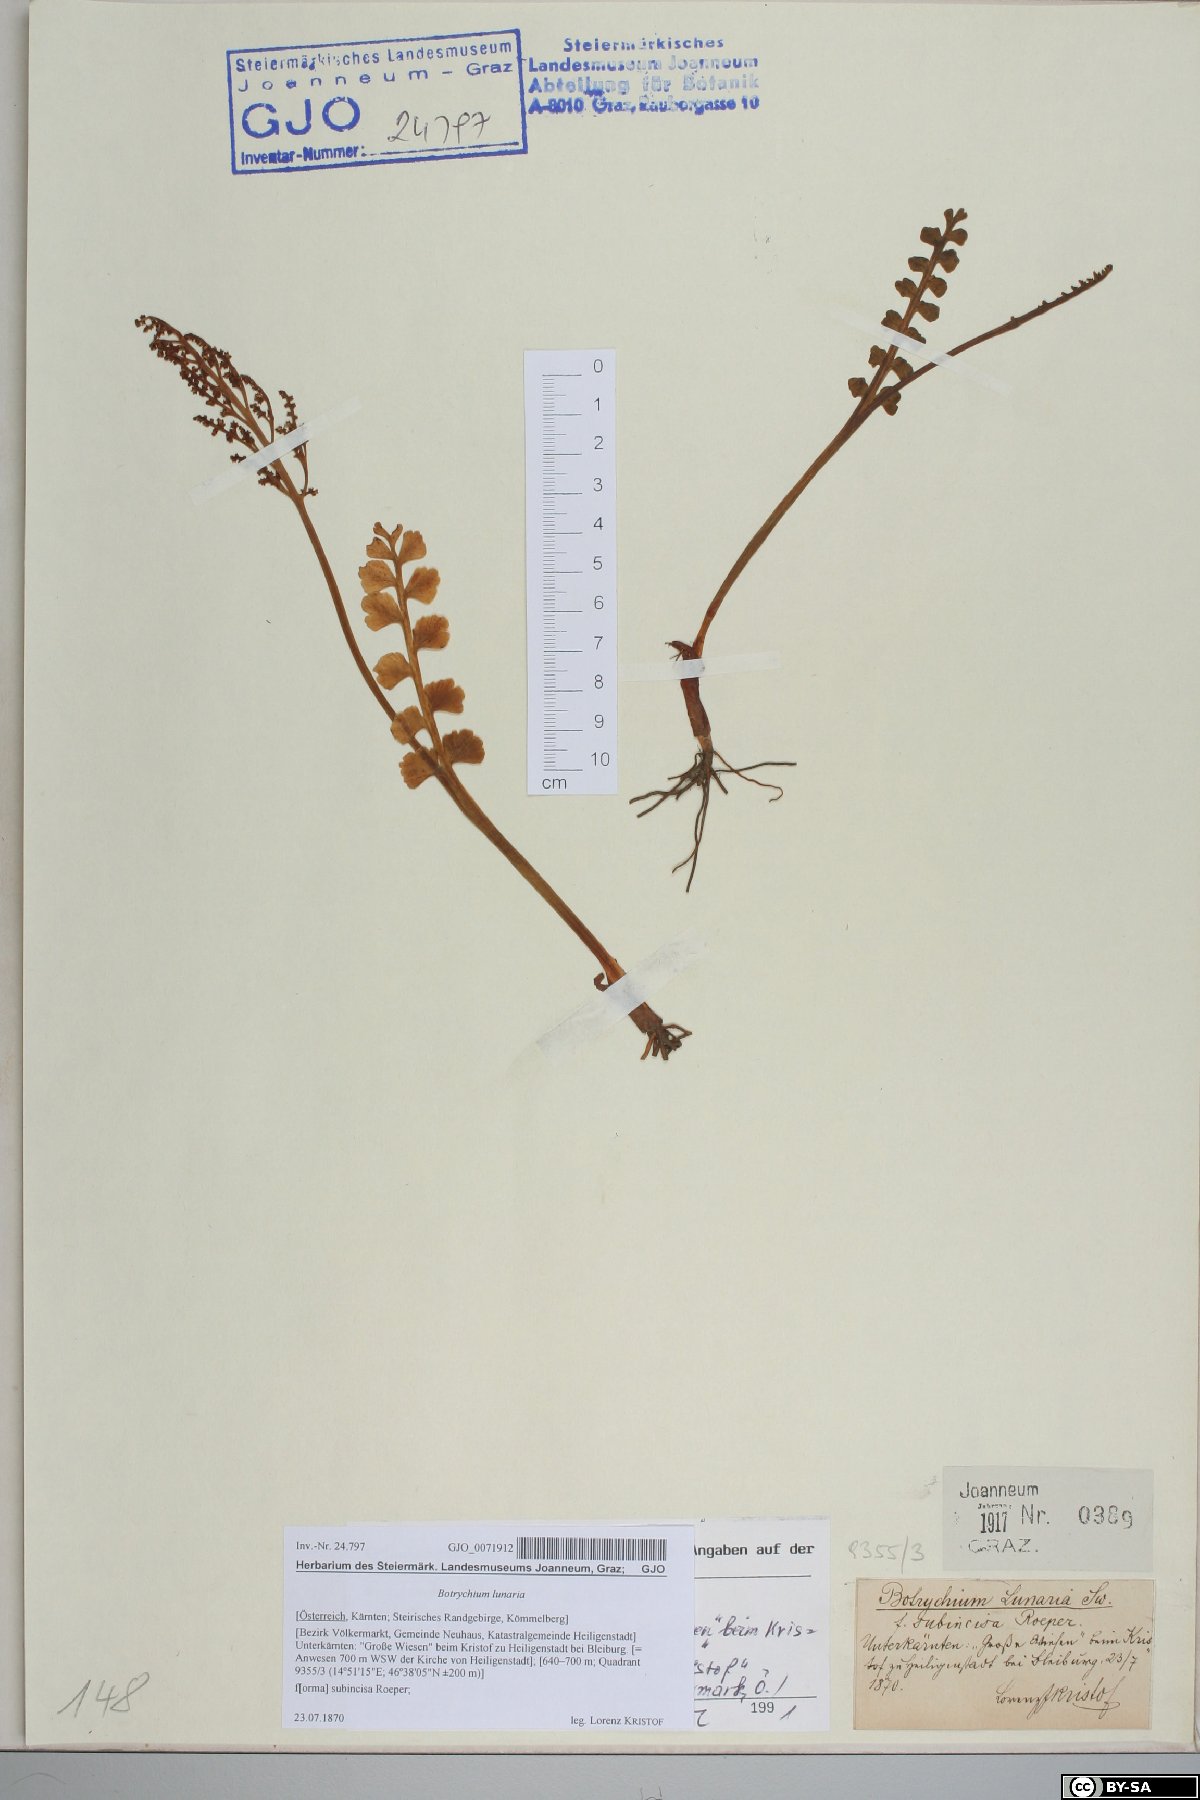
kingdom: Plantae
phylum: Tracheophyta
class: Polypodiopsida
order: Ophioglossales
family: Ophioglossaceae
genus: Botrychium
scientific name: Botrychium lunaria
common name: Moonwort
